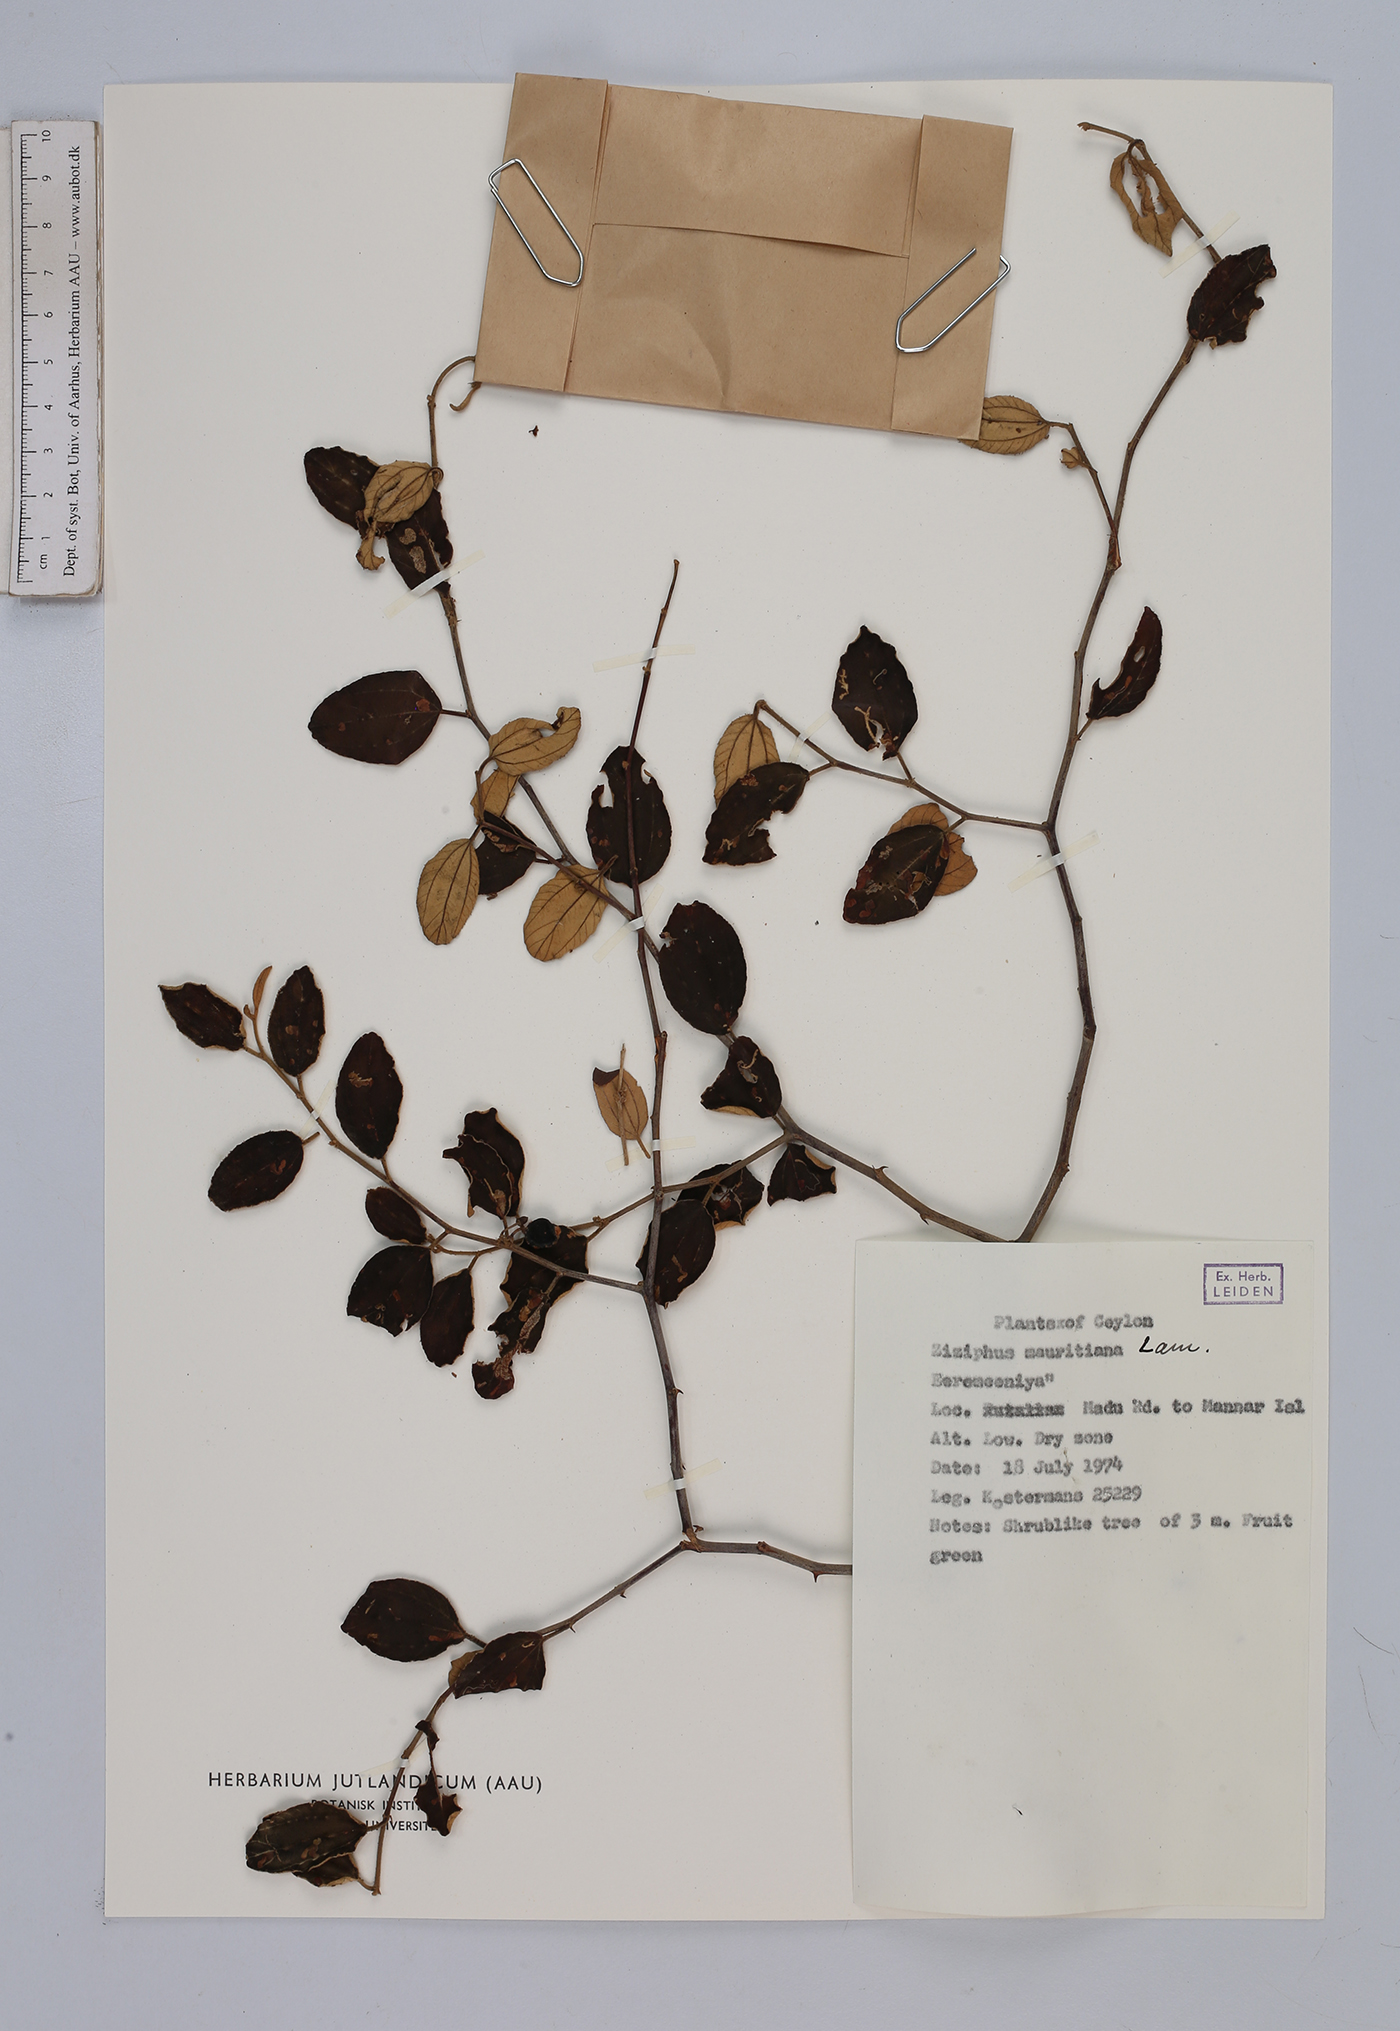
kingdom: Plantae
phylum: Tracheophyta
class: Magnoliopsida
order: Rosales
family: Rhamnaceae
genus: Ziziphus
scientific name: Ziziphus mauritiana
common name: Indian jujube
